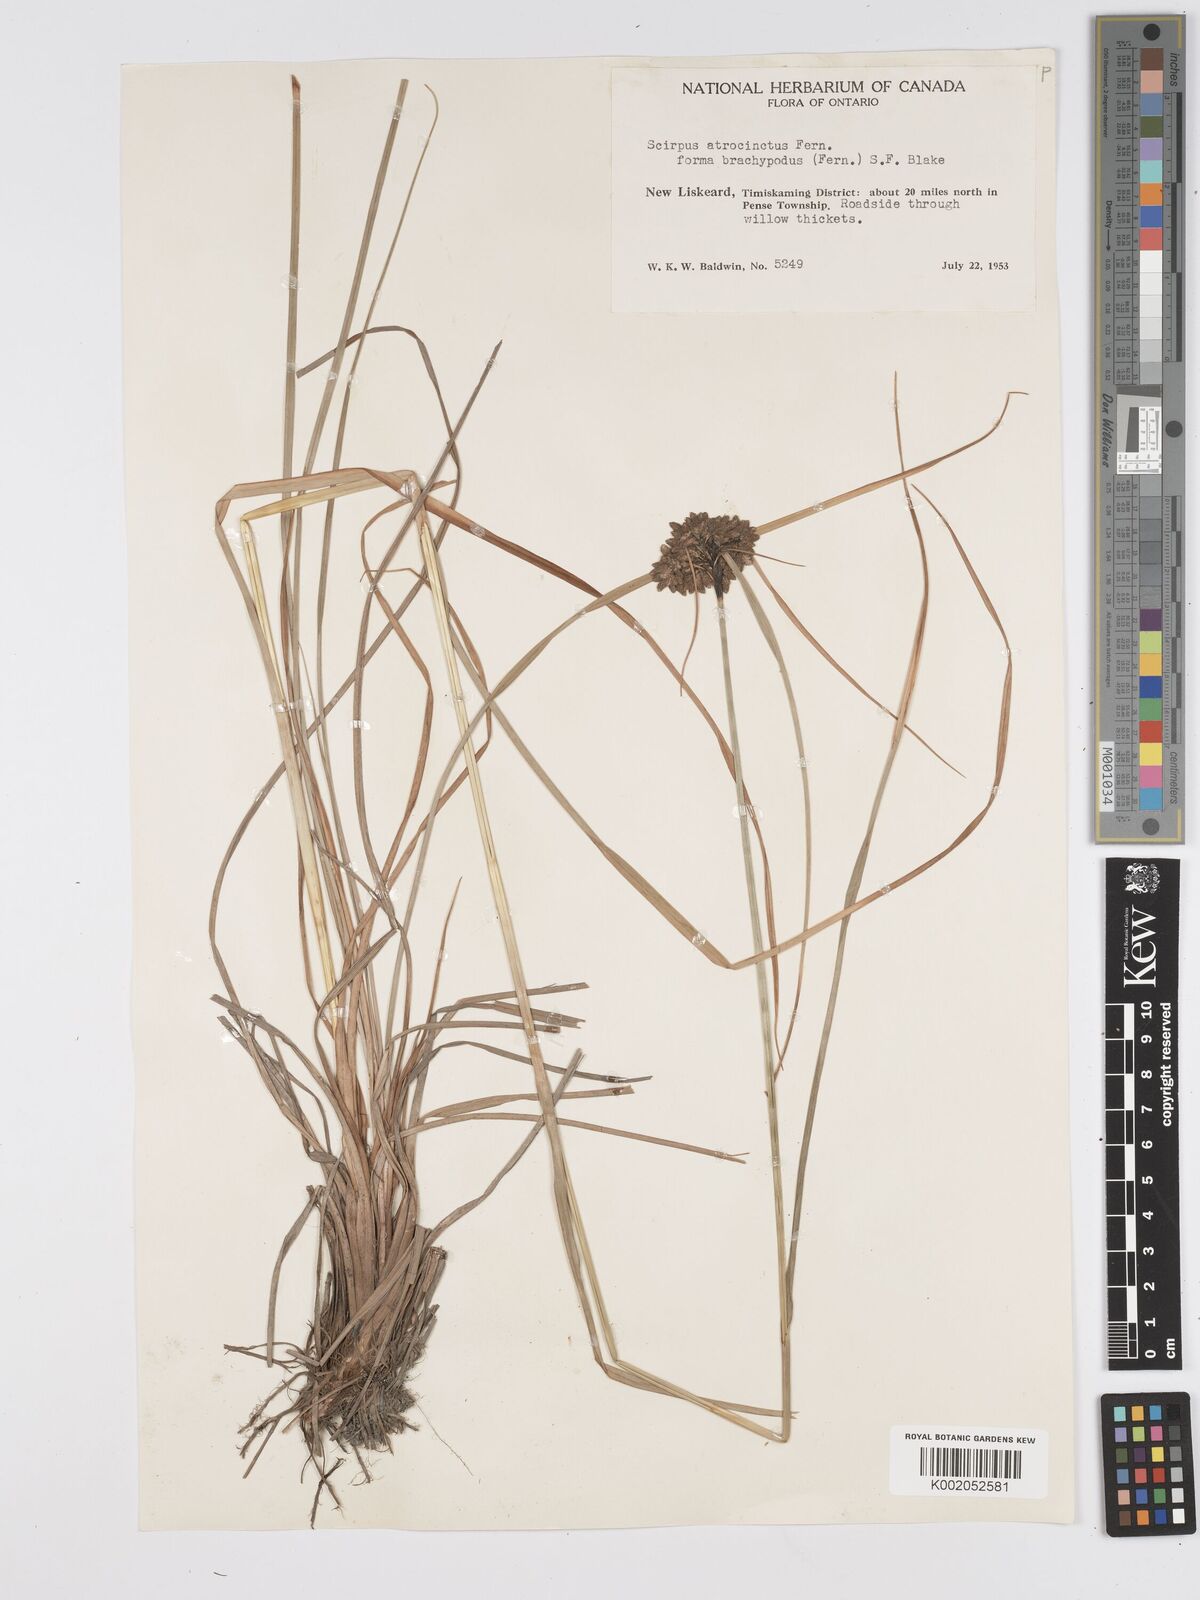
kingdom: Plantae
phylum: Tracheophyta
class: Liliopsida
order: Poales
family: Cyperaceae
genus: Scirpus
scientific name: Scirpus atrocinctus
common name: Black-girdled bulrush
